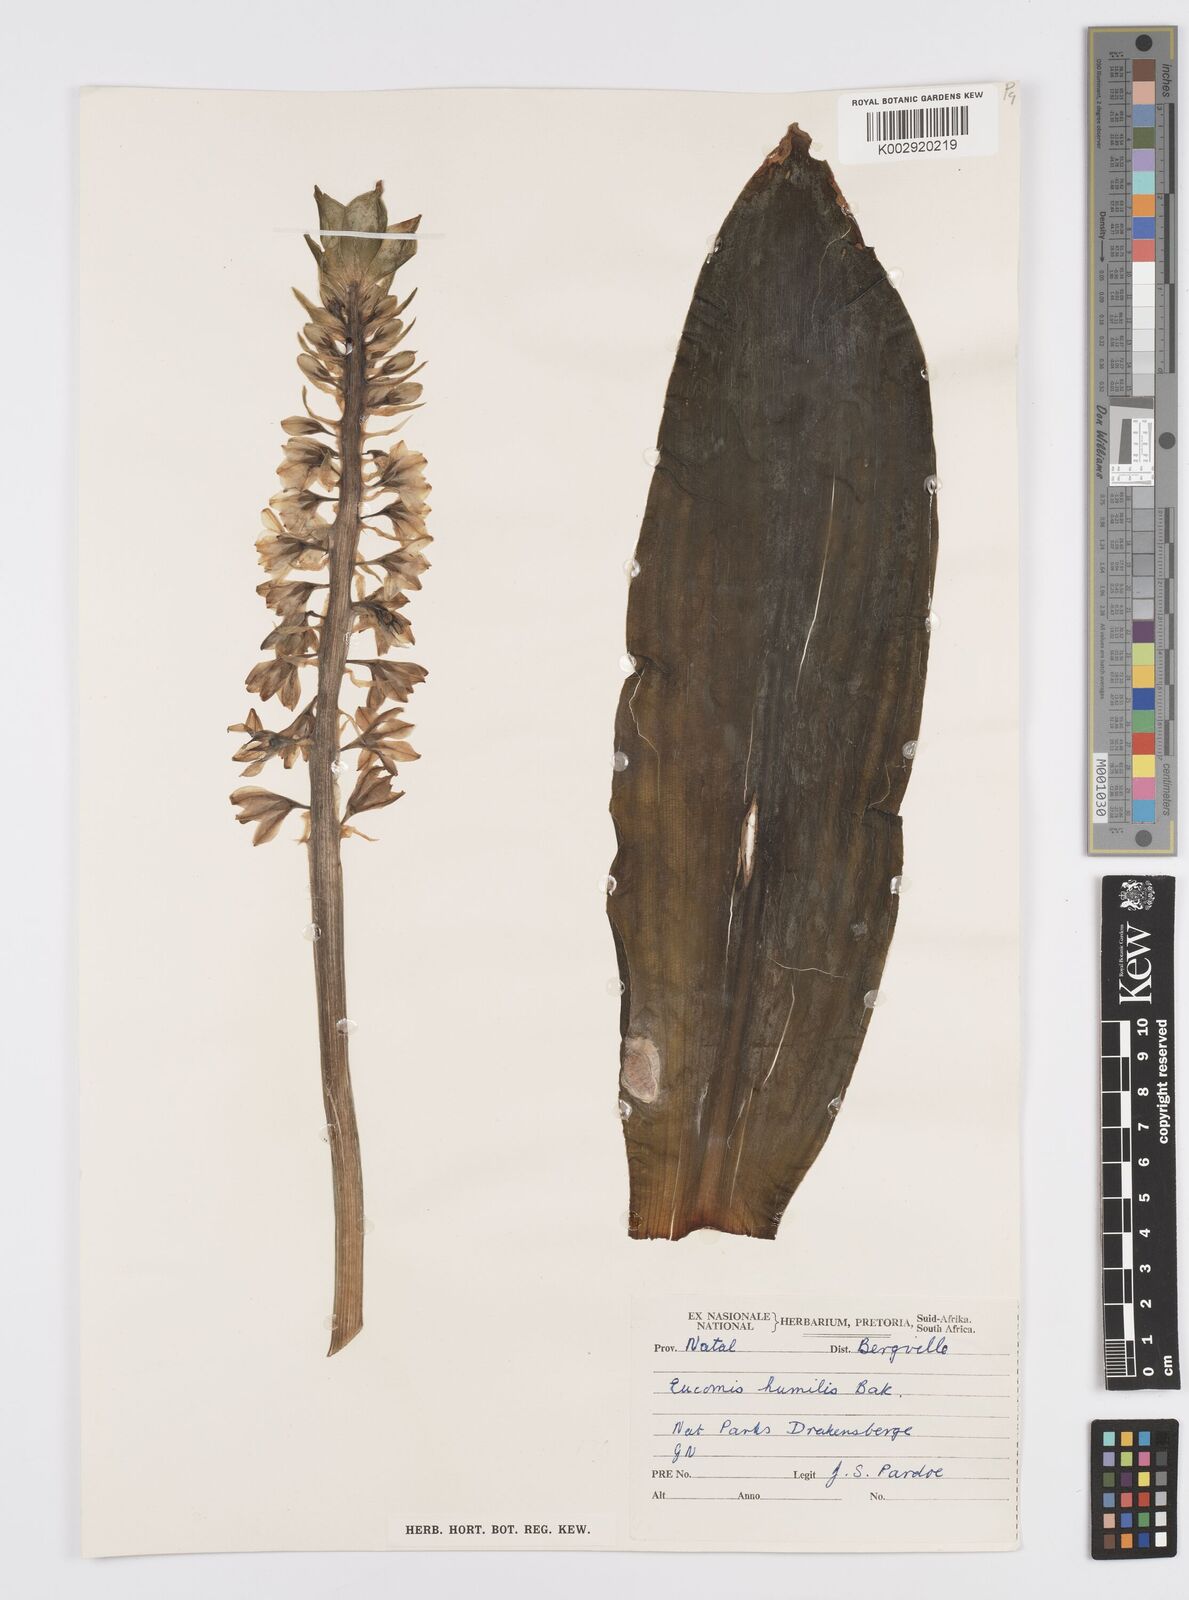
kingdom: Plantae
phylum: Tracheophyta
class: Liliopsida
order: Asparagales
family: Asparagaceae
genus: Eucomis
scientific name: Eucomis
